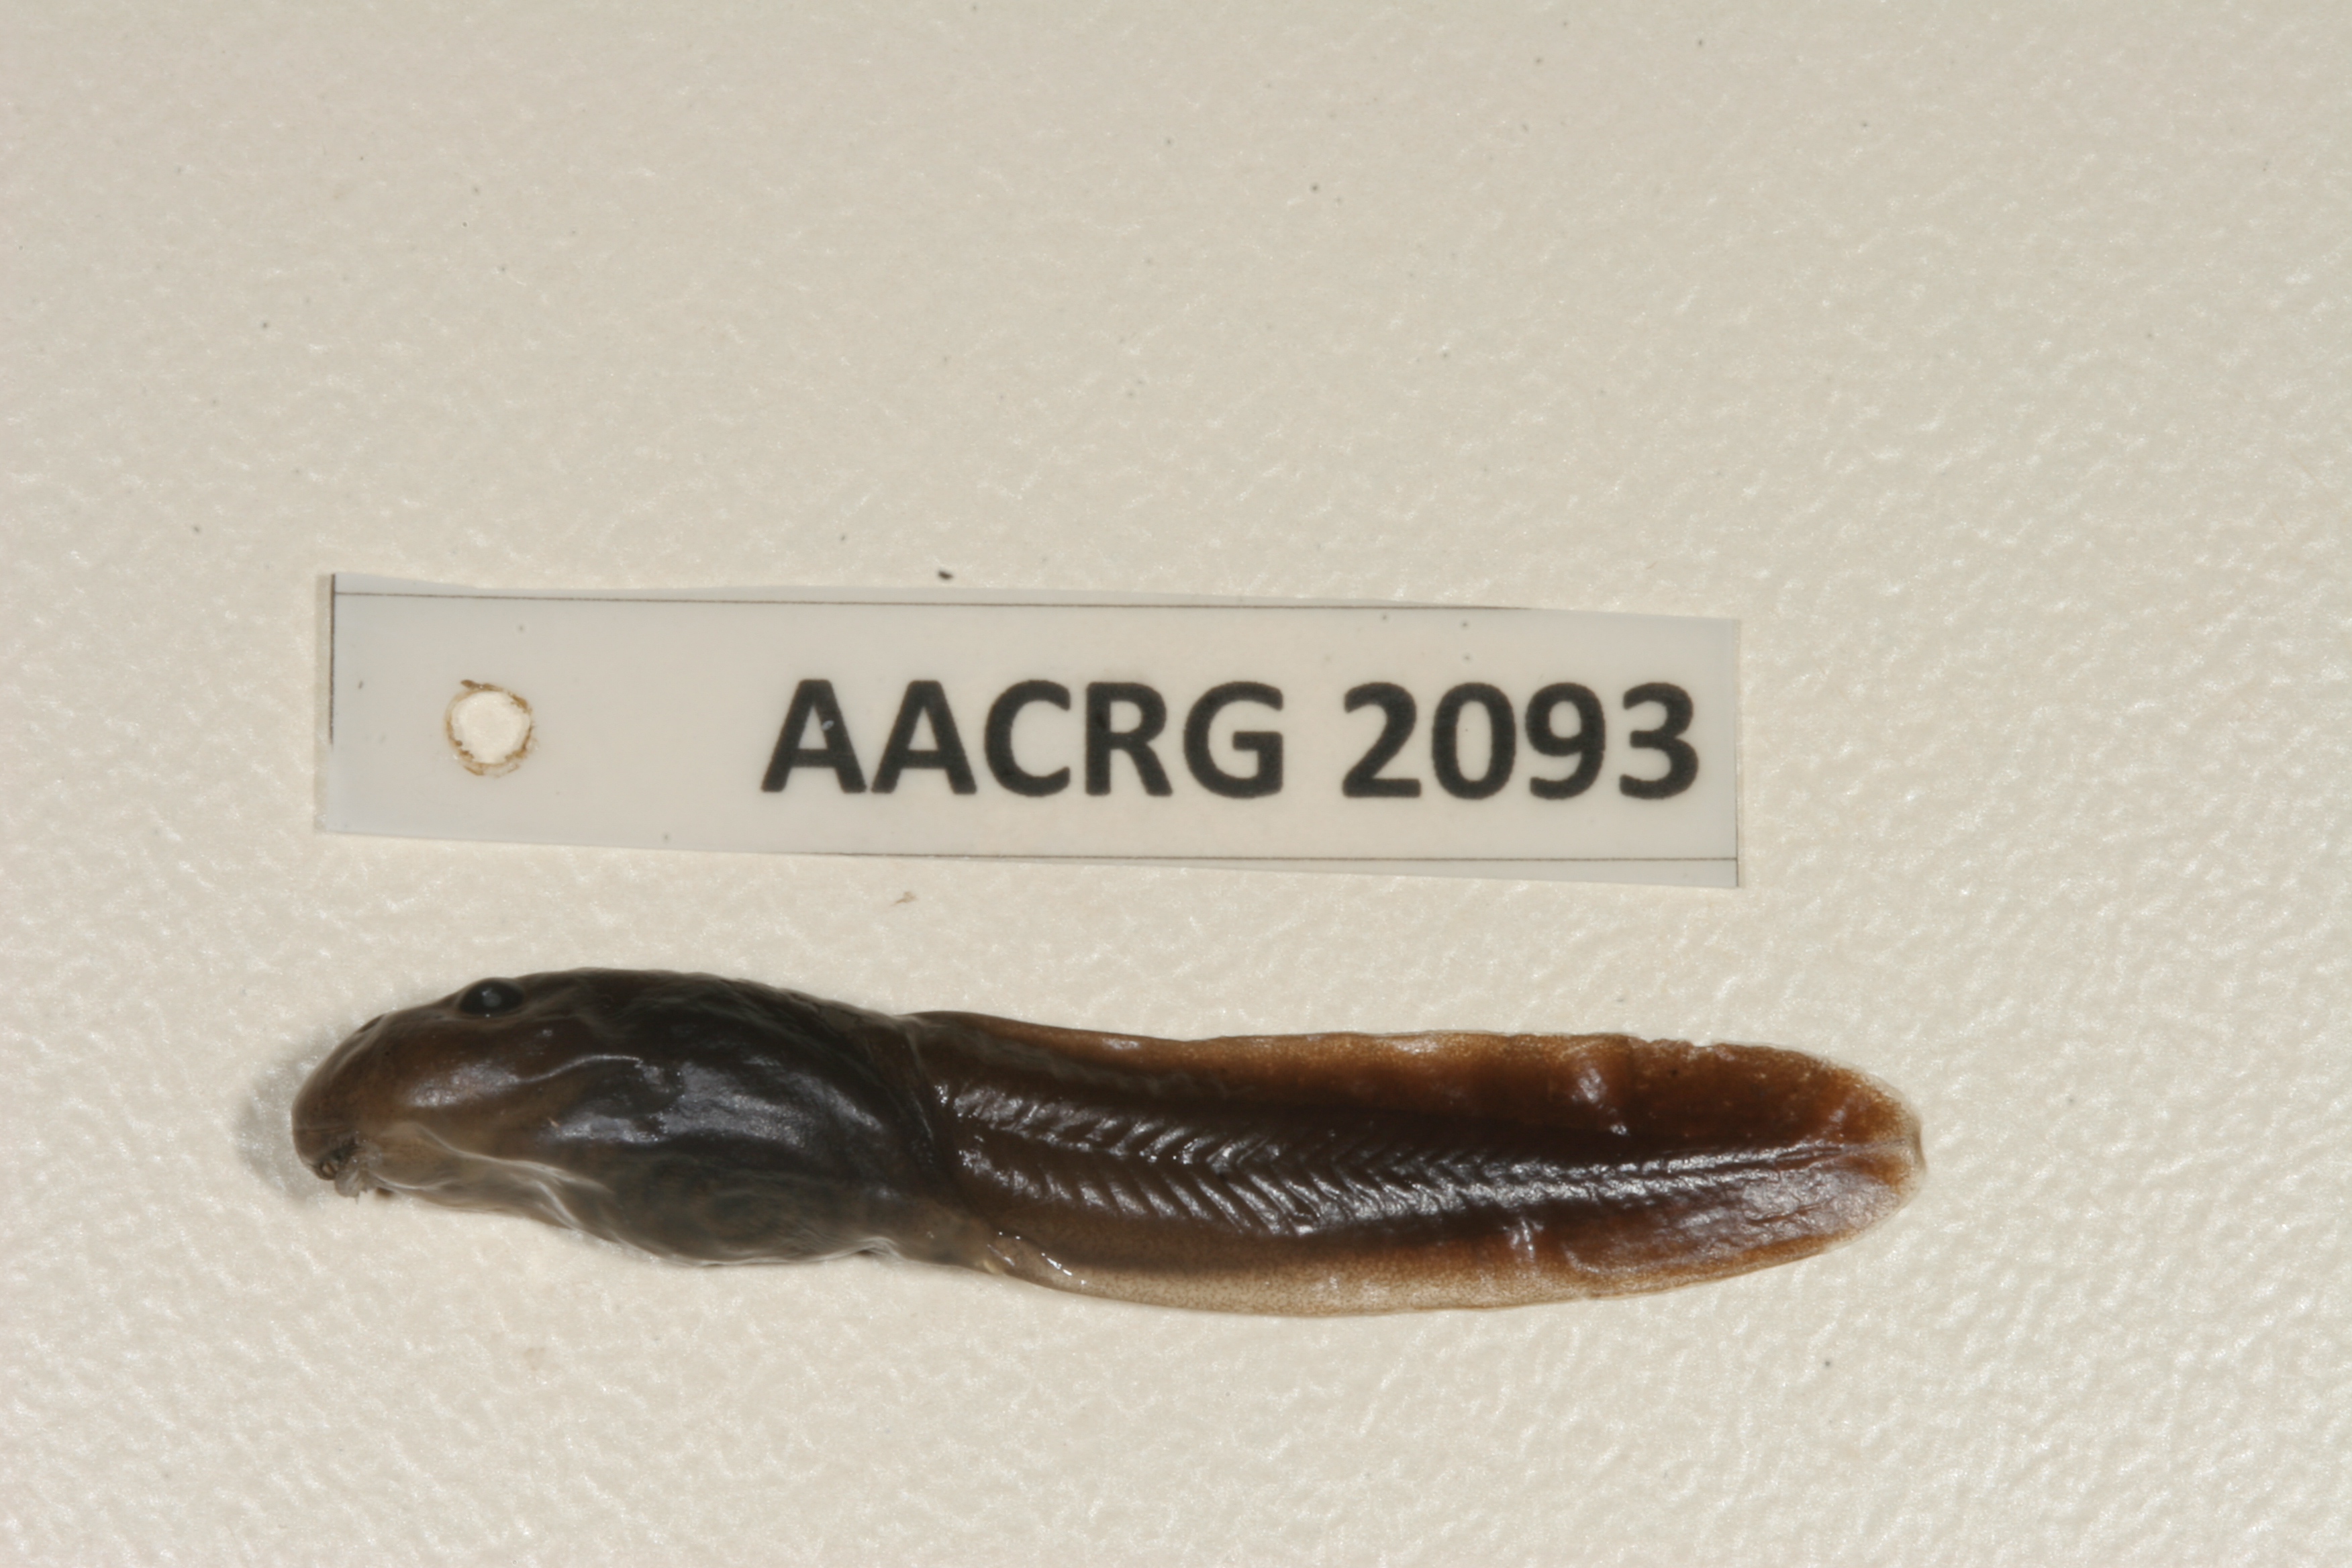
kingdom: Animalia
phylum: Chordata
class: Amphibia
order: Anura
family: Pyxicephalidae
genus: Amietia
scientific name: Amietia vandijki
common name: Van dijk's river frog
